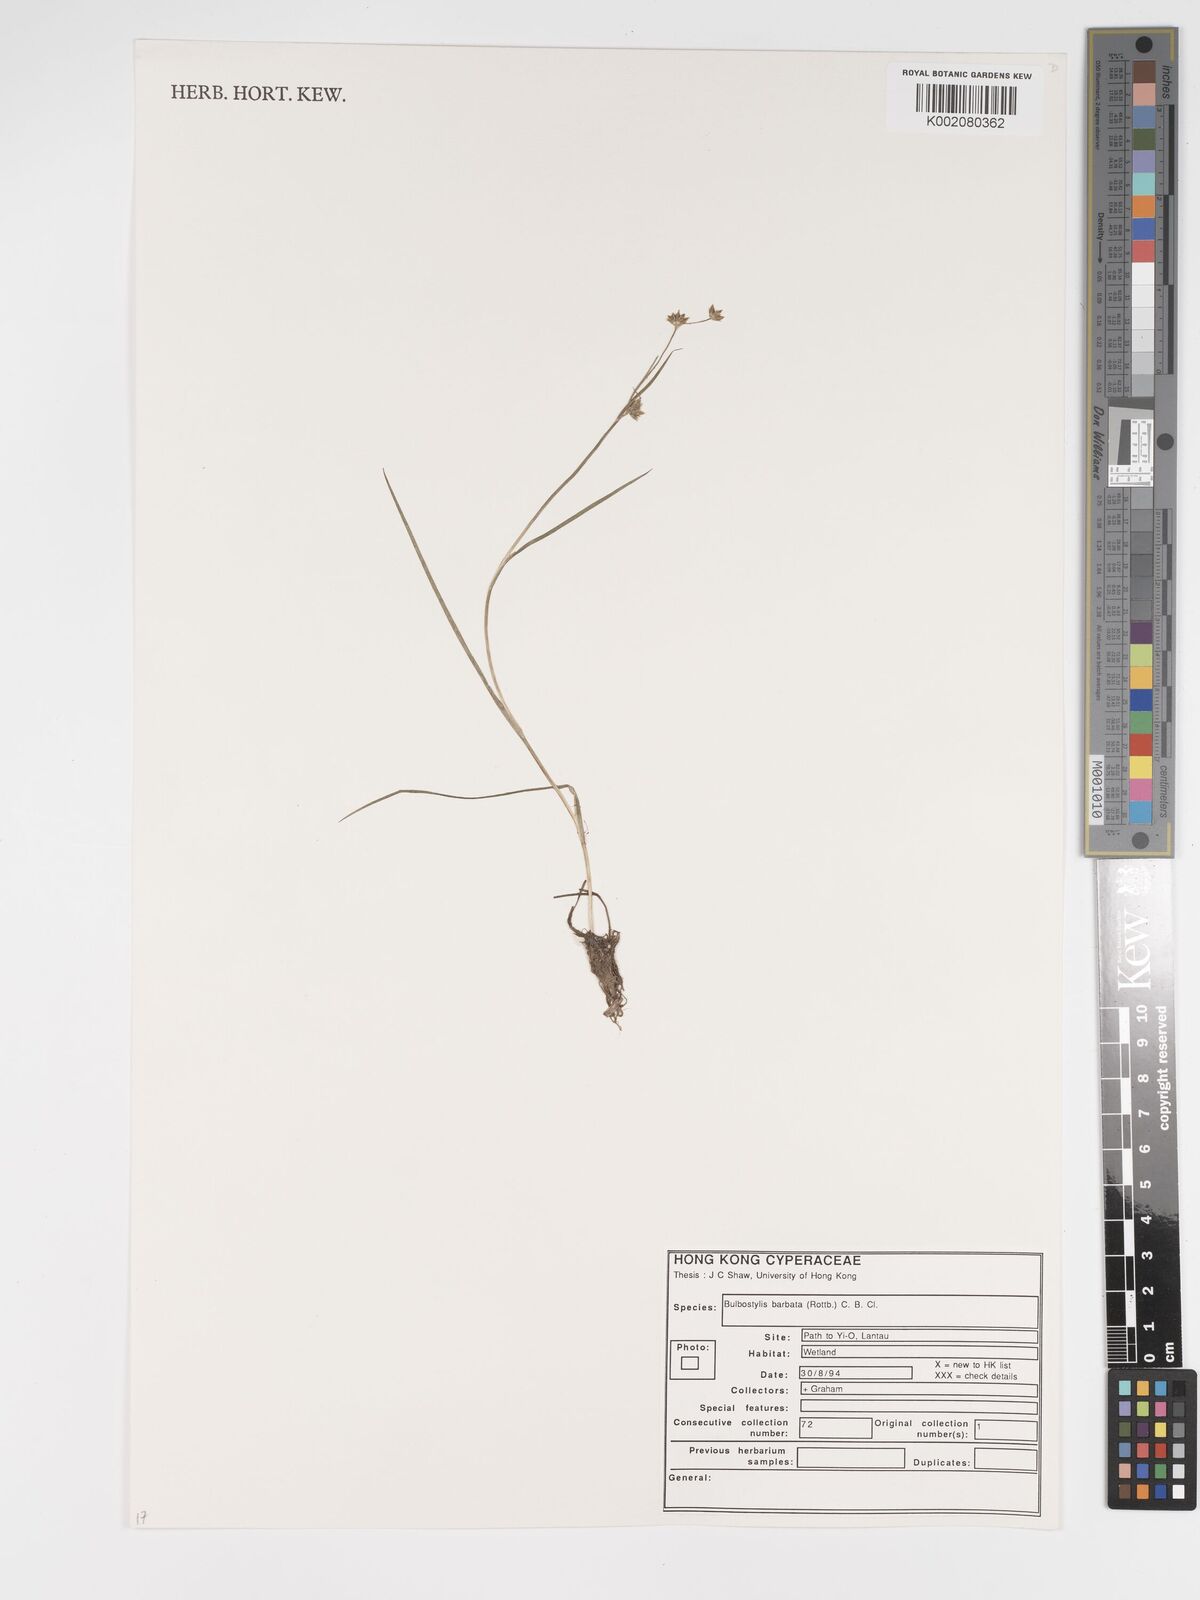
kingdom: Plantae
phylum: Tracheophyta
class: Liliopsida
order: Poales
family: Cyperaceae
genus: Bulbostylis
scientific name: Bulbostylis barbata
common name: Watergrass
